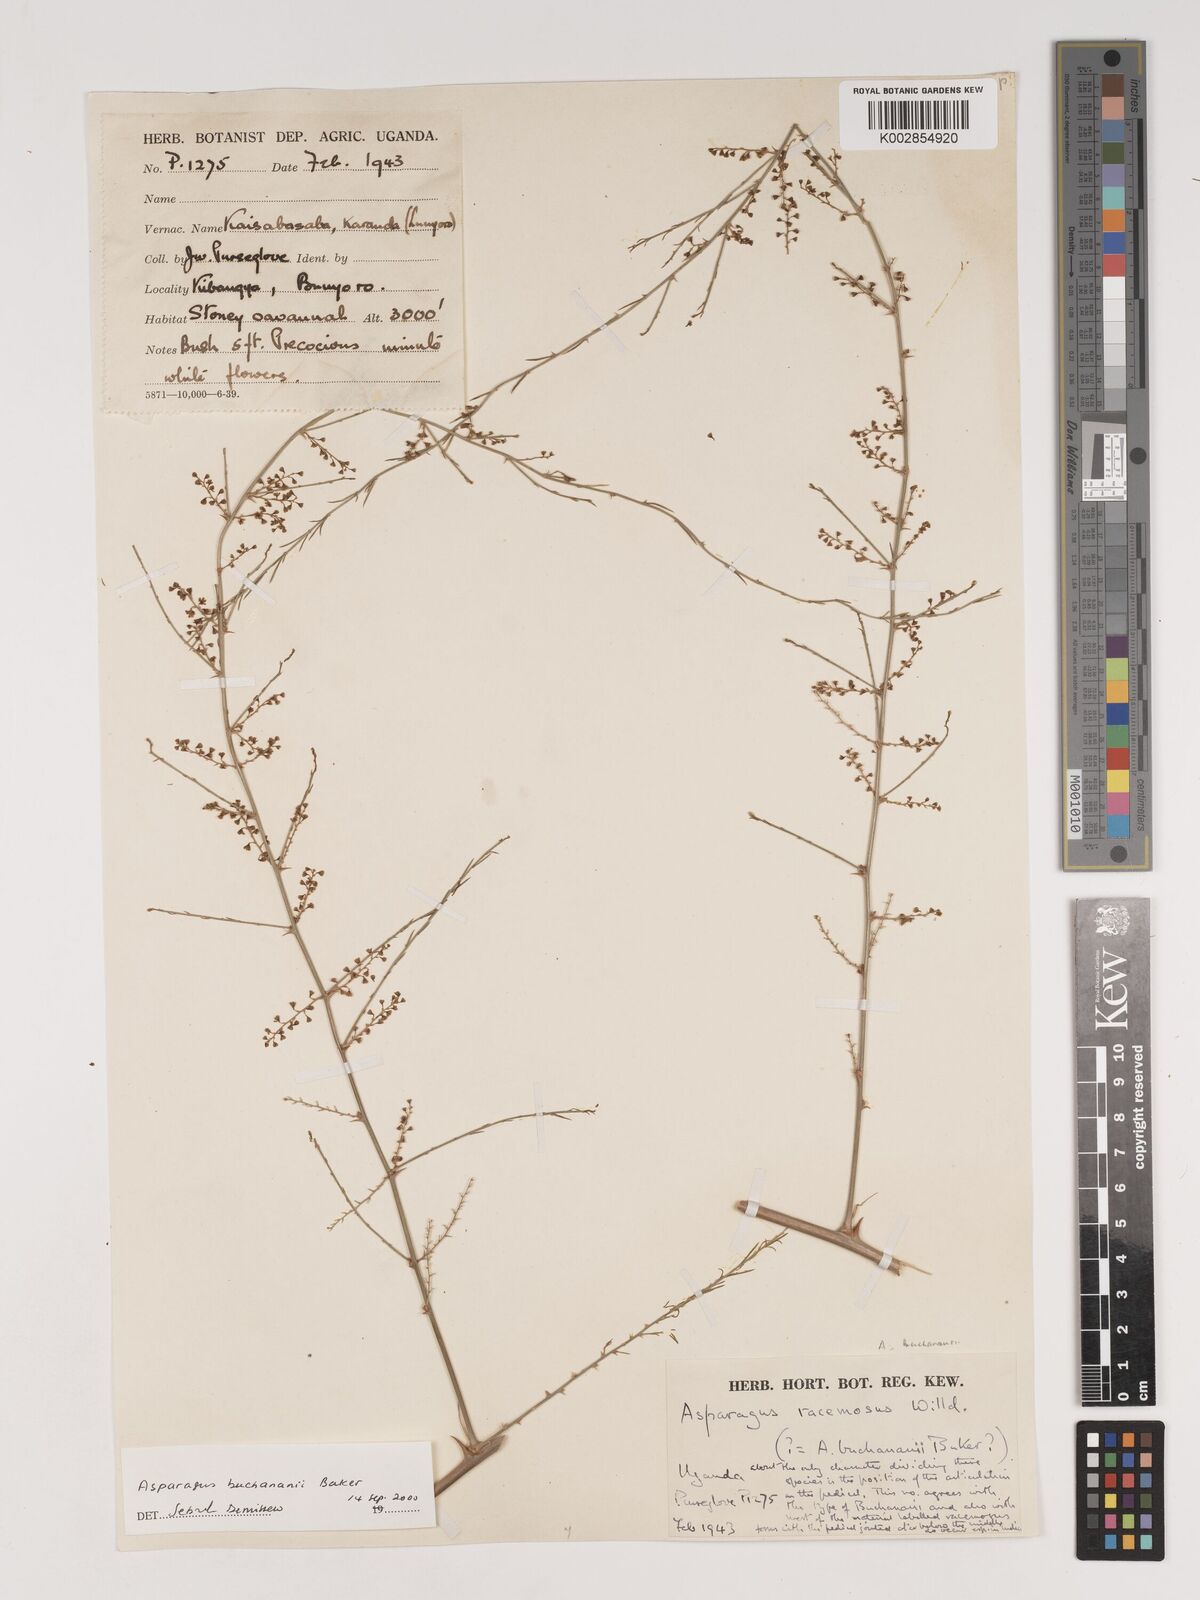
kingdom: Plantae
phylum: Tracheophyta
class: Liliopsida
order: Asparagales
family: Asparagaceae
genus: Asparagus
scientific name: Asparagus buchananii
